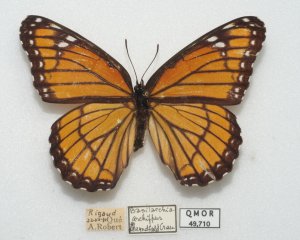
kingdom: Animalia
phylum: Arthropoda
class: Insecta
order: Lepidoptera
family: Nymphalidae
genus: Limenitis
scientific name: Limenitis archippus
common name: Viceroy
